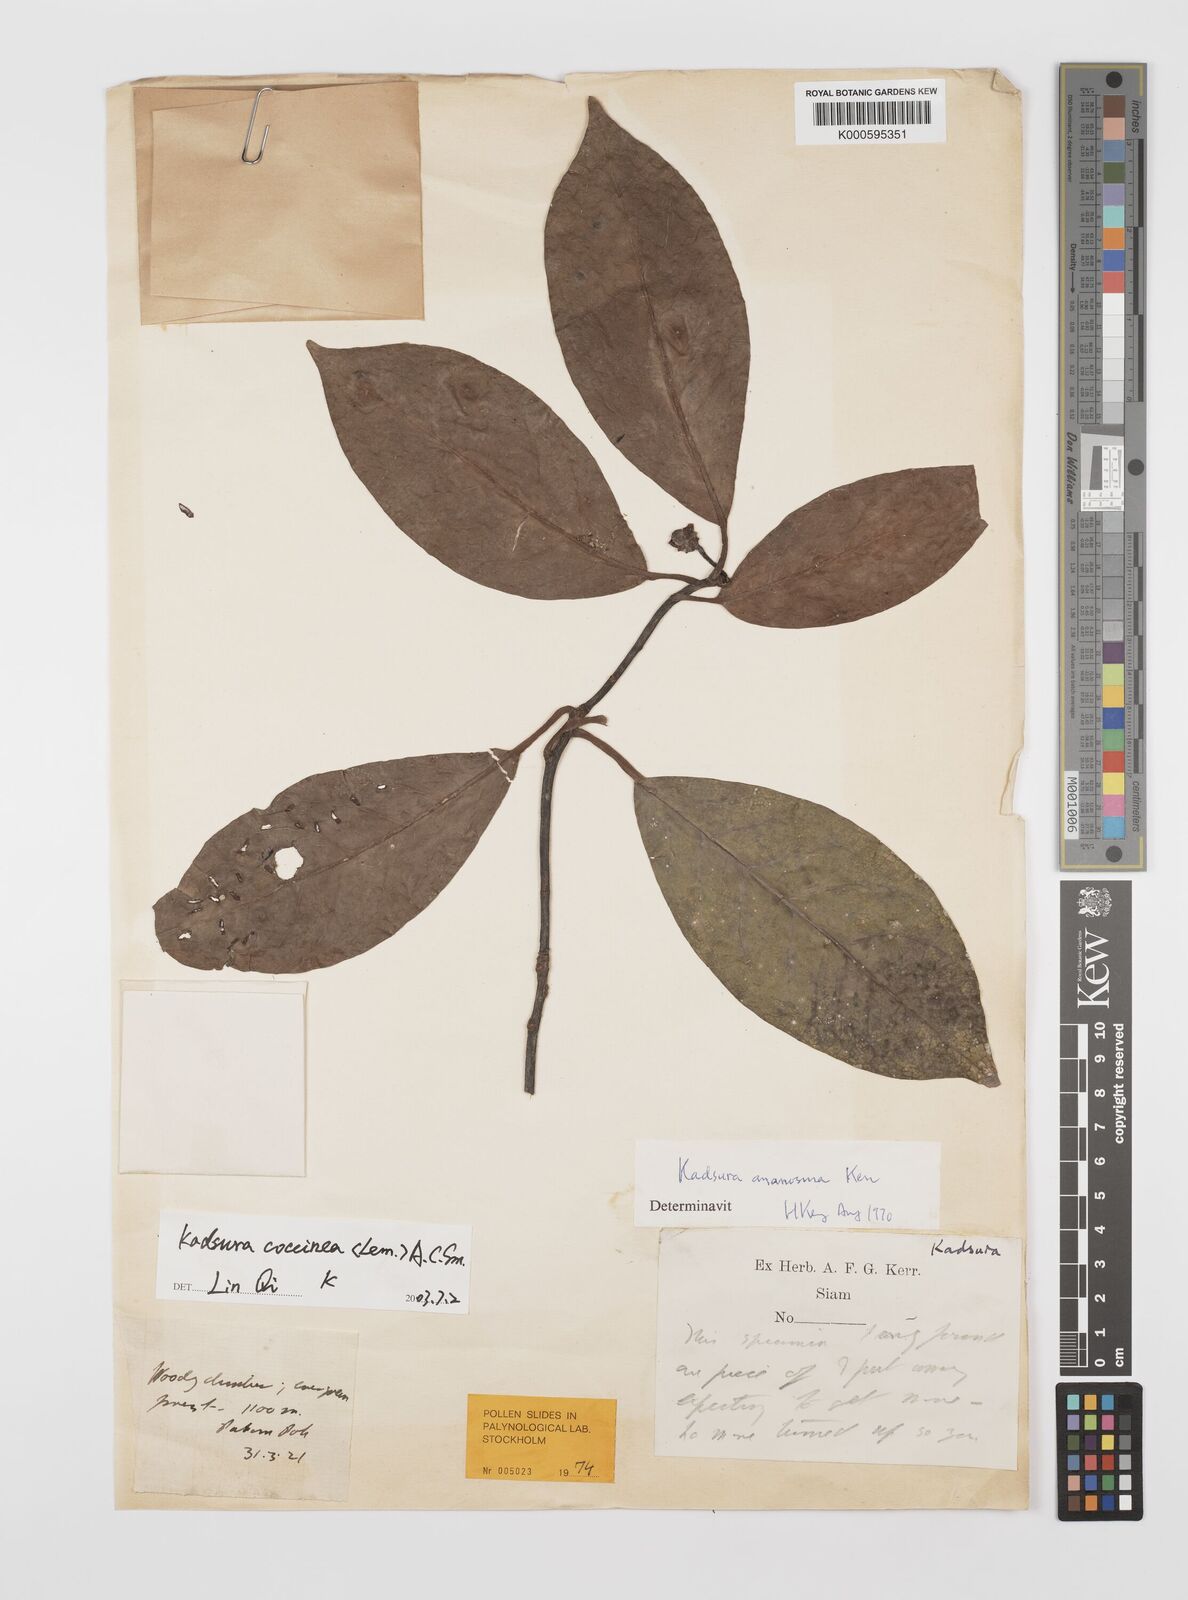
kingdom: Plantae
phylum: Tracheophyta
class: Magnoliopsida
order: Austrobaileyales
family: Schisandraceae
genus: Kadsura
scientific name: Kadsura coccinea
